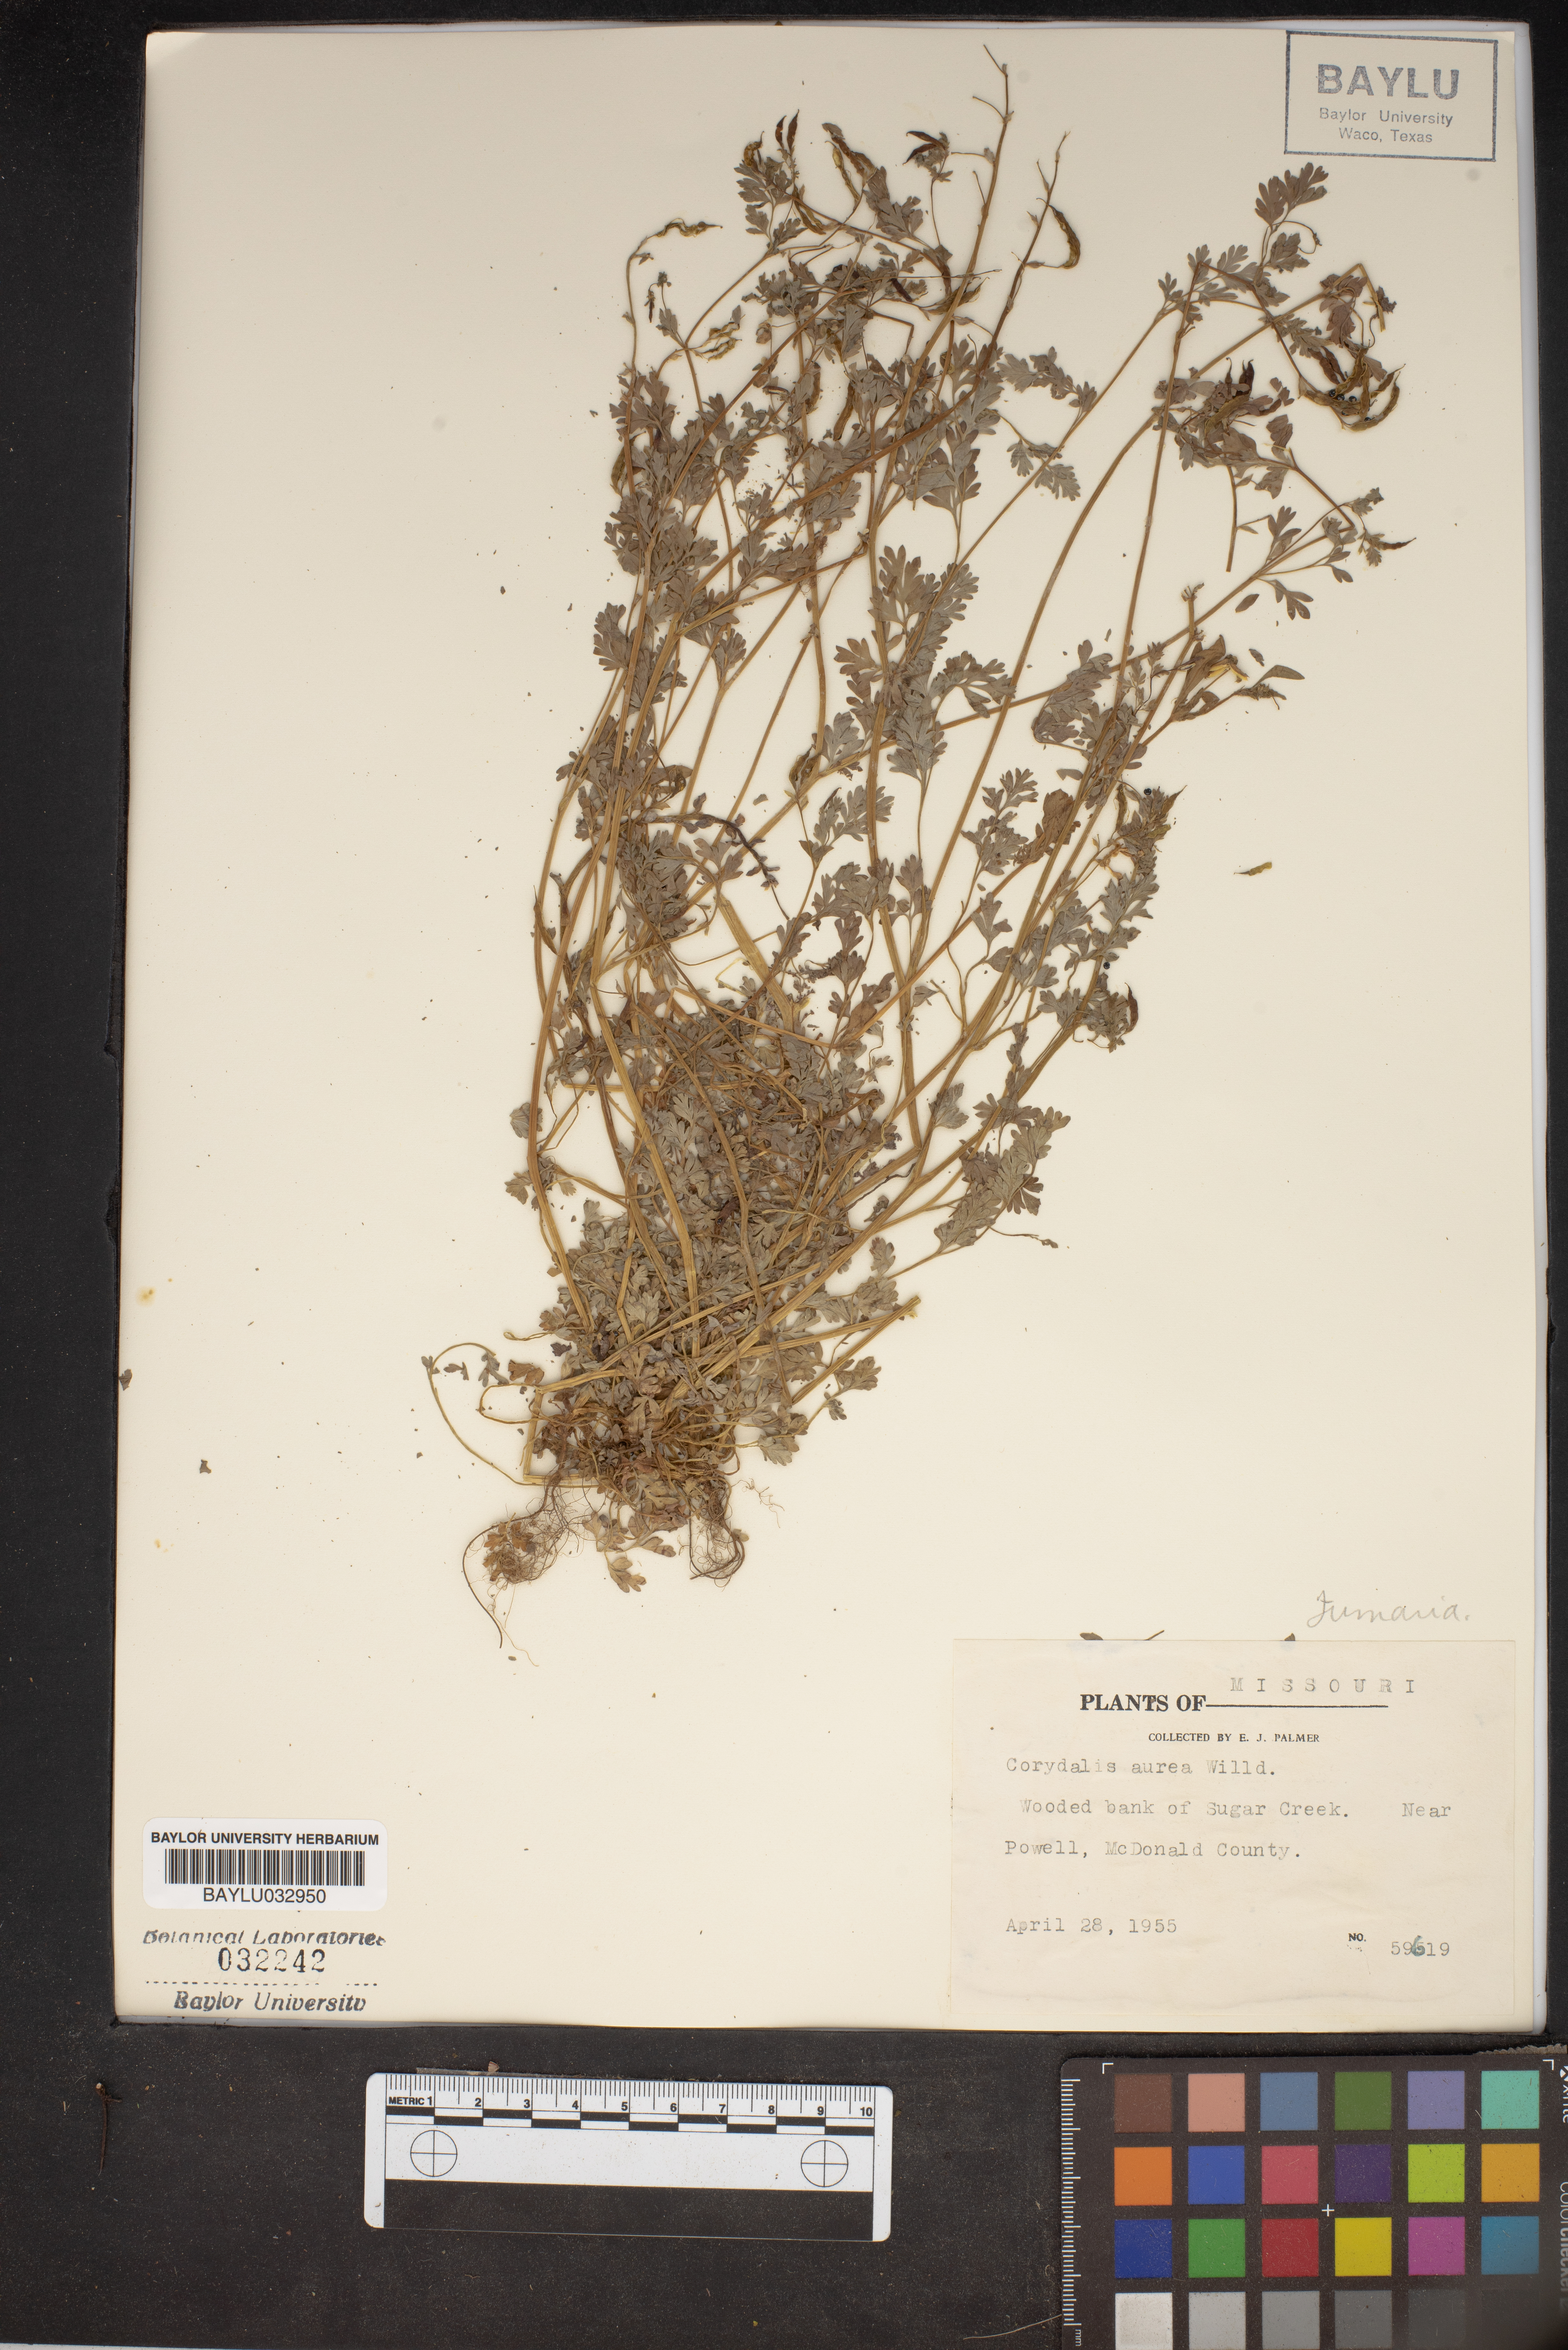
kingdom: Plantae
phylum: Tracheophyta
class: Magnoliopsida
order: Ranunculales
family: Papaveraceae
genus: Corydalis
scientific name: Corydalis aurea
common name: Golden corydalis
